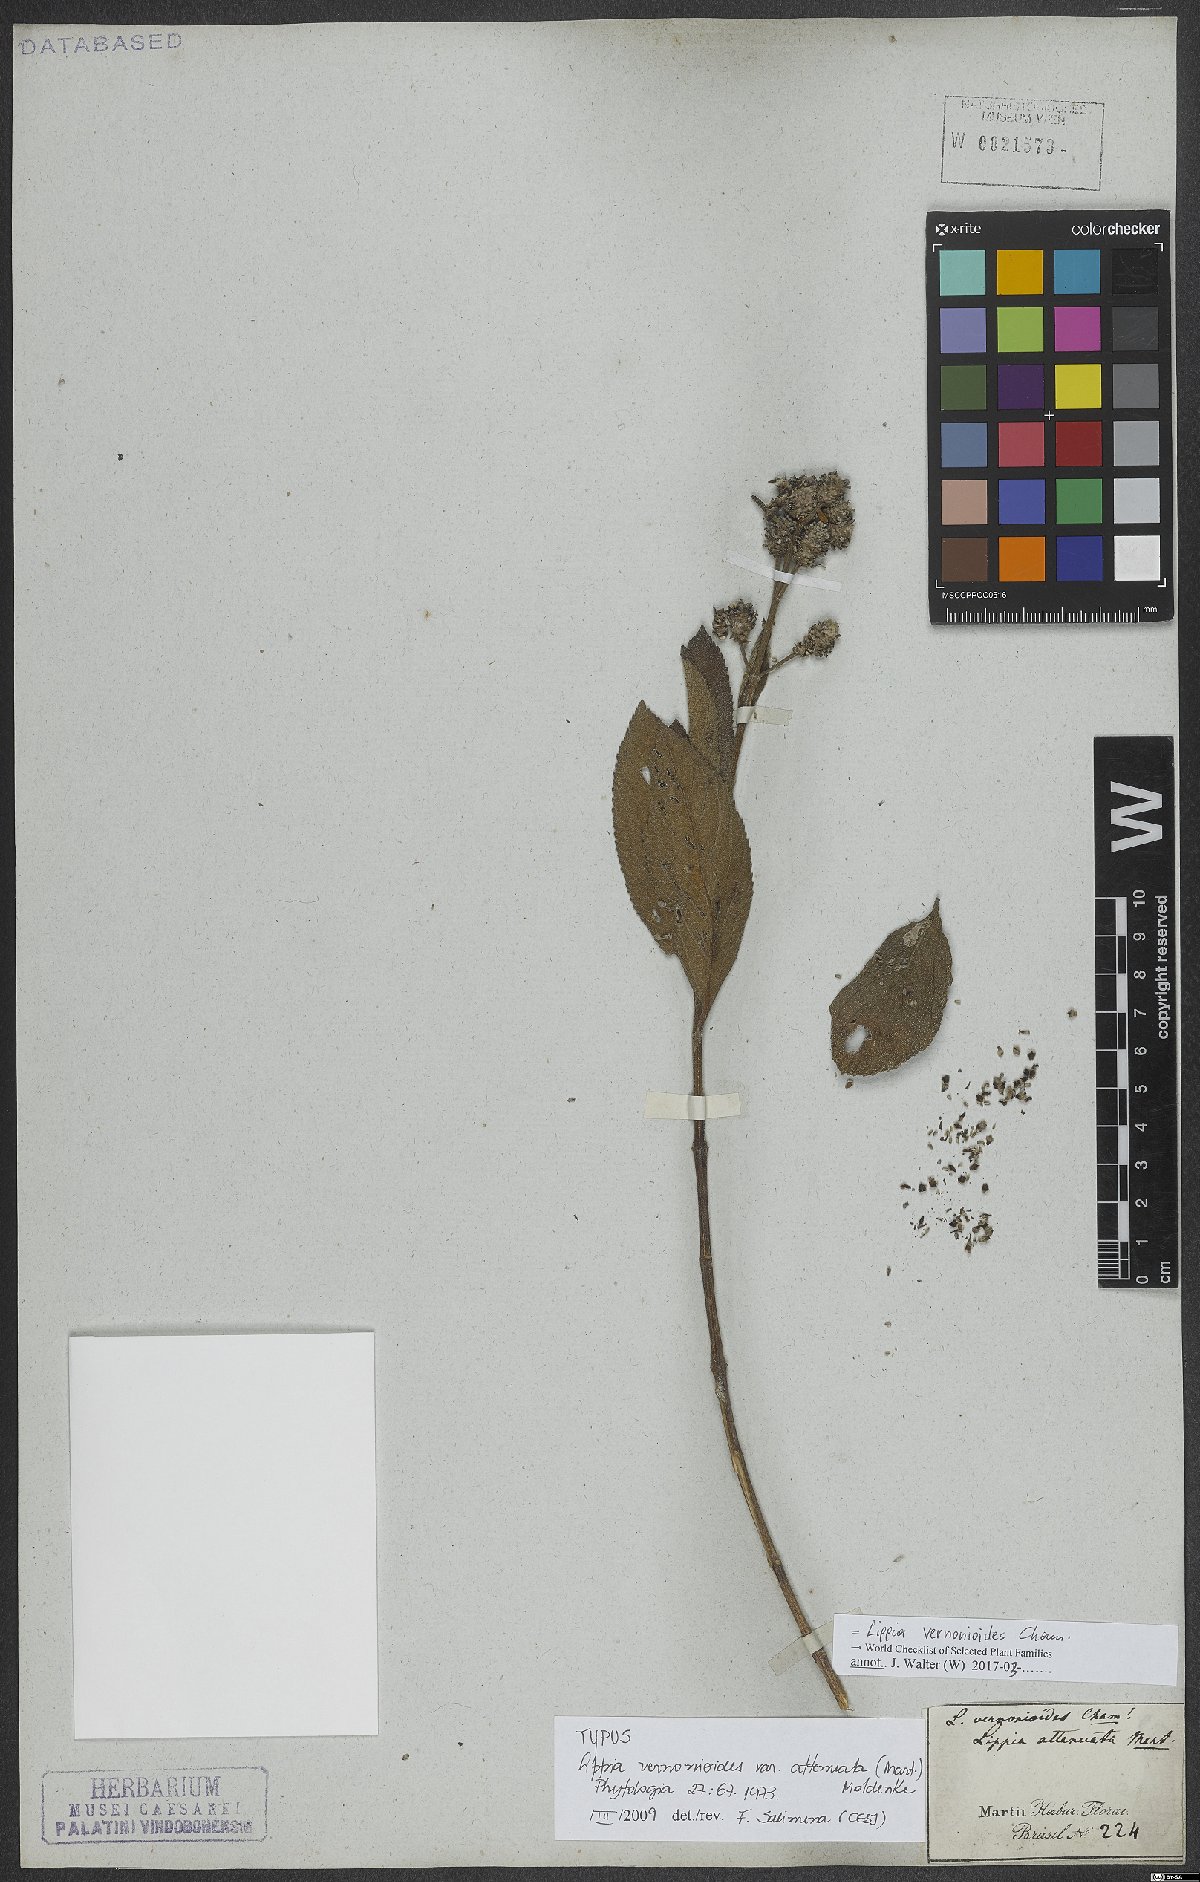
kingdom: Plantae
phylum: Tracheophyta
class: Magnoliopsida
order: Lamiales
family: Verbenaceae
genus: Lippia
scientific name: Lippia vernonioides
